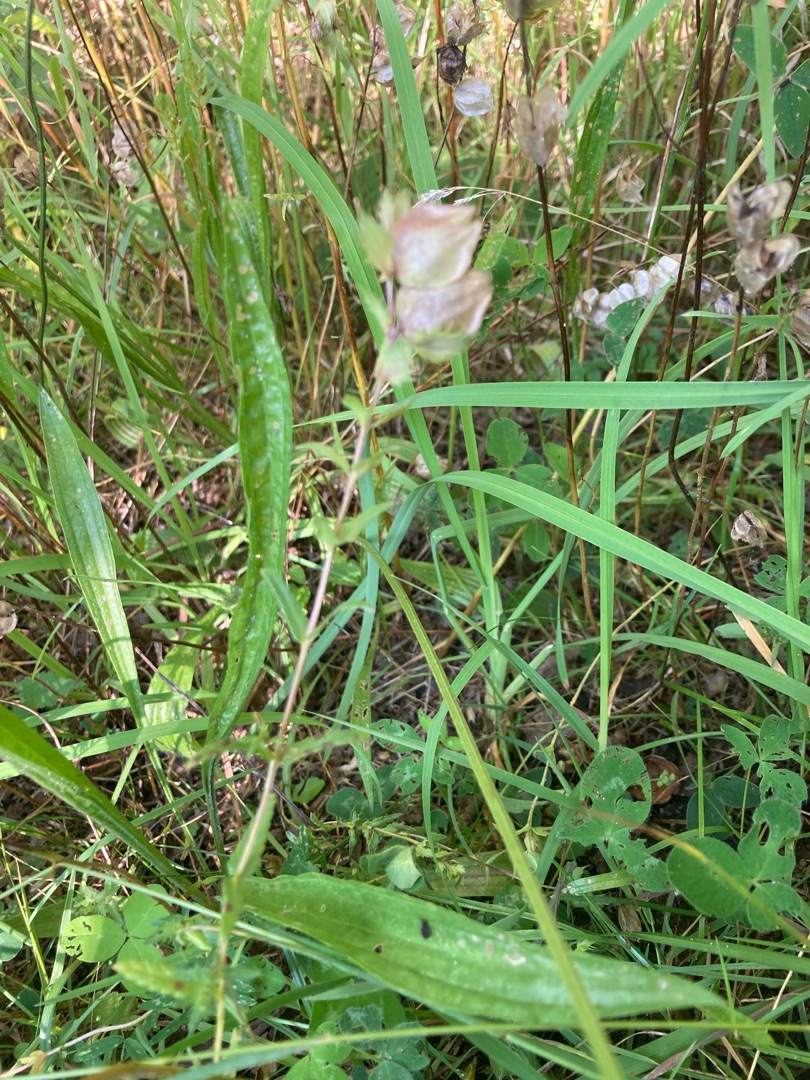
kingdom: Plantae
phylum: Tracheophyta
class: Magnoliopsida
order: Lamiales
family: Orobanchaceae
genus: Rhinanthus
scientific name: Rhinanthus
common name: Stor skjaller
